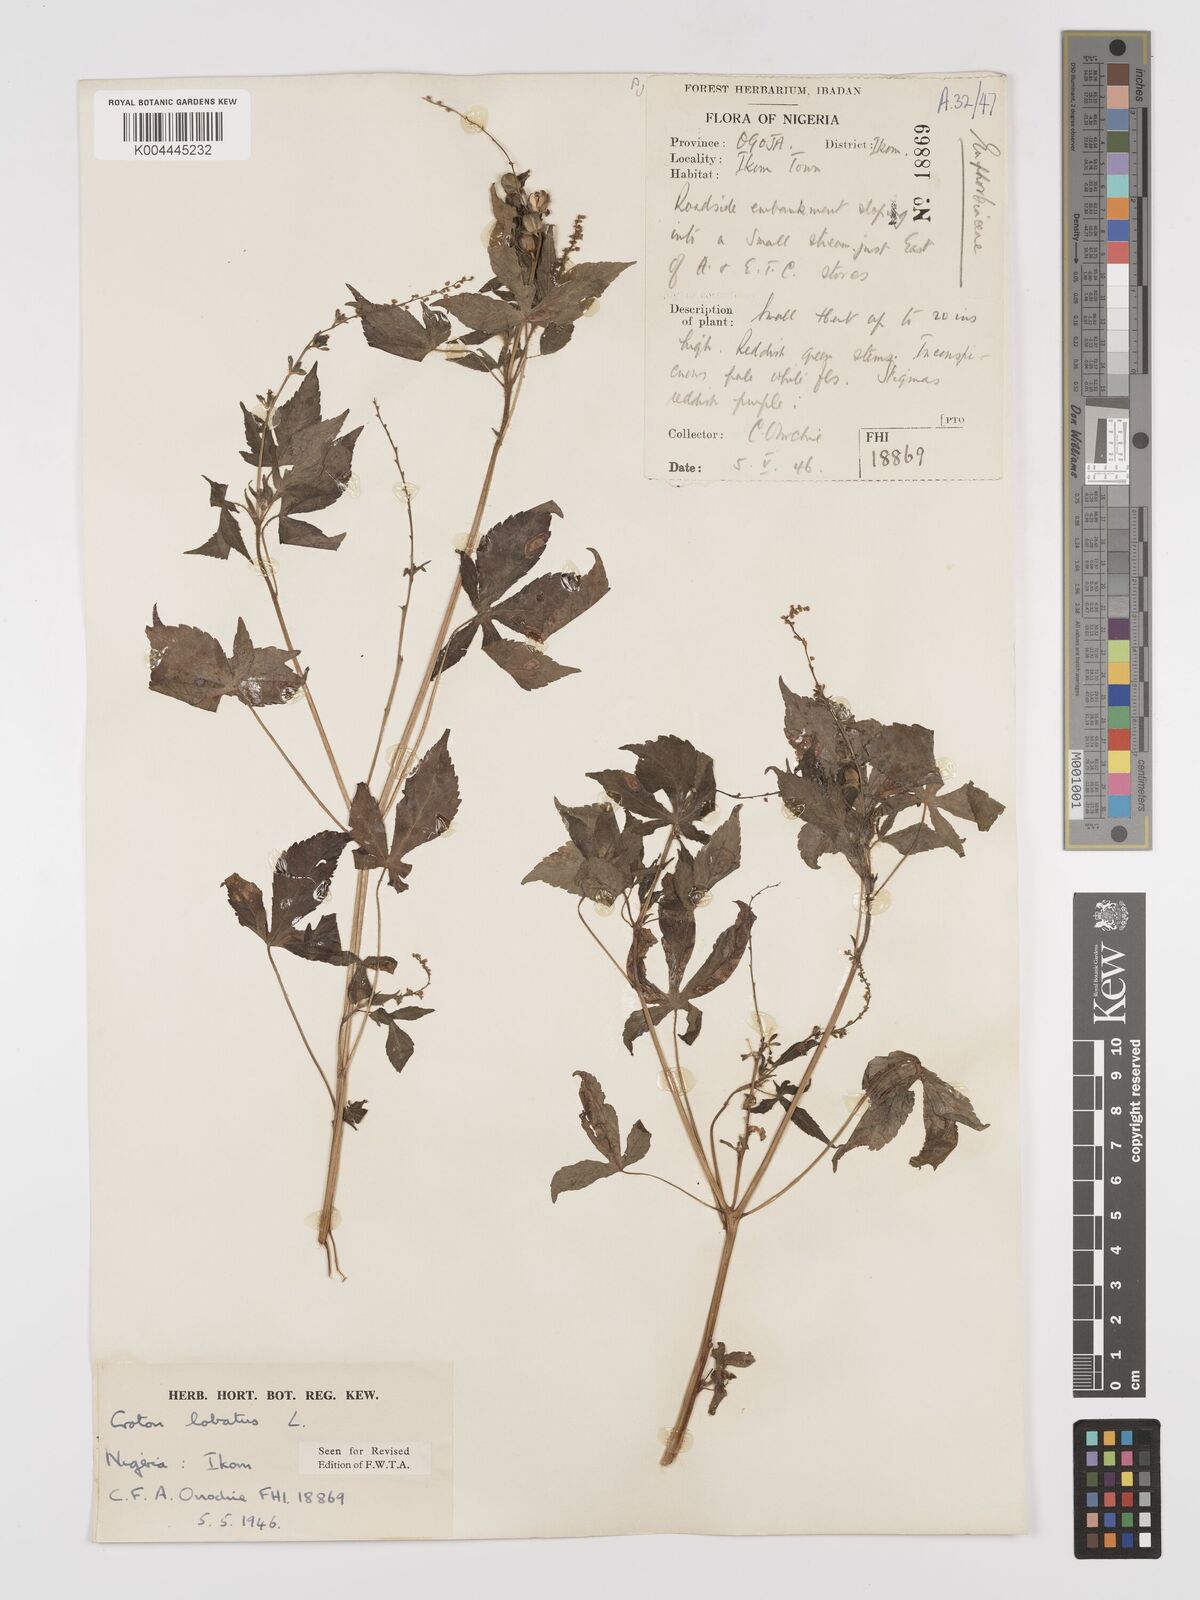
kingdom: Plantae
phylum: Tracheophyta
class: Magnoliopsida
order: Malpighiales
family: Euphorbiaceae
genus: Astraea
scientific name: Astraea lobata
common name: Lobed croton
